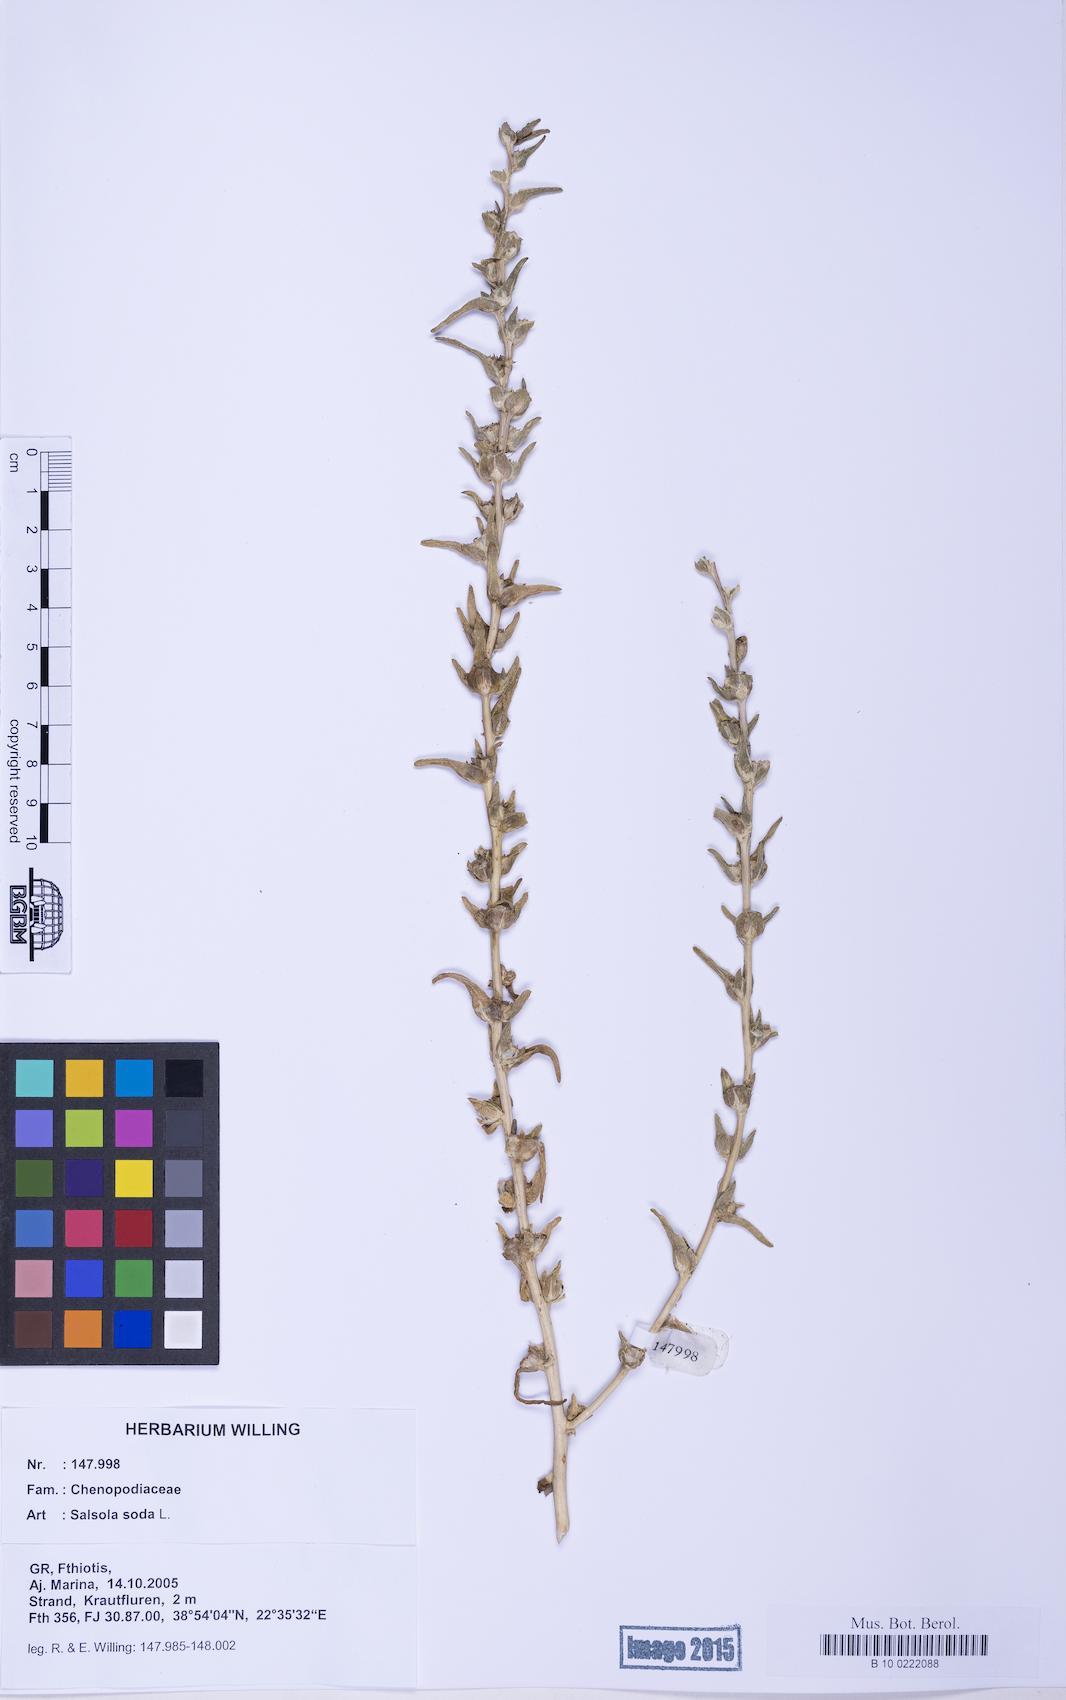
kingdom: Plantae
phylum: Tracheophyta
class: Magnoliopsida
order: Caryophyllales
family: Amaranthaceae
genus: Soda
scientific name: Soda inermis
